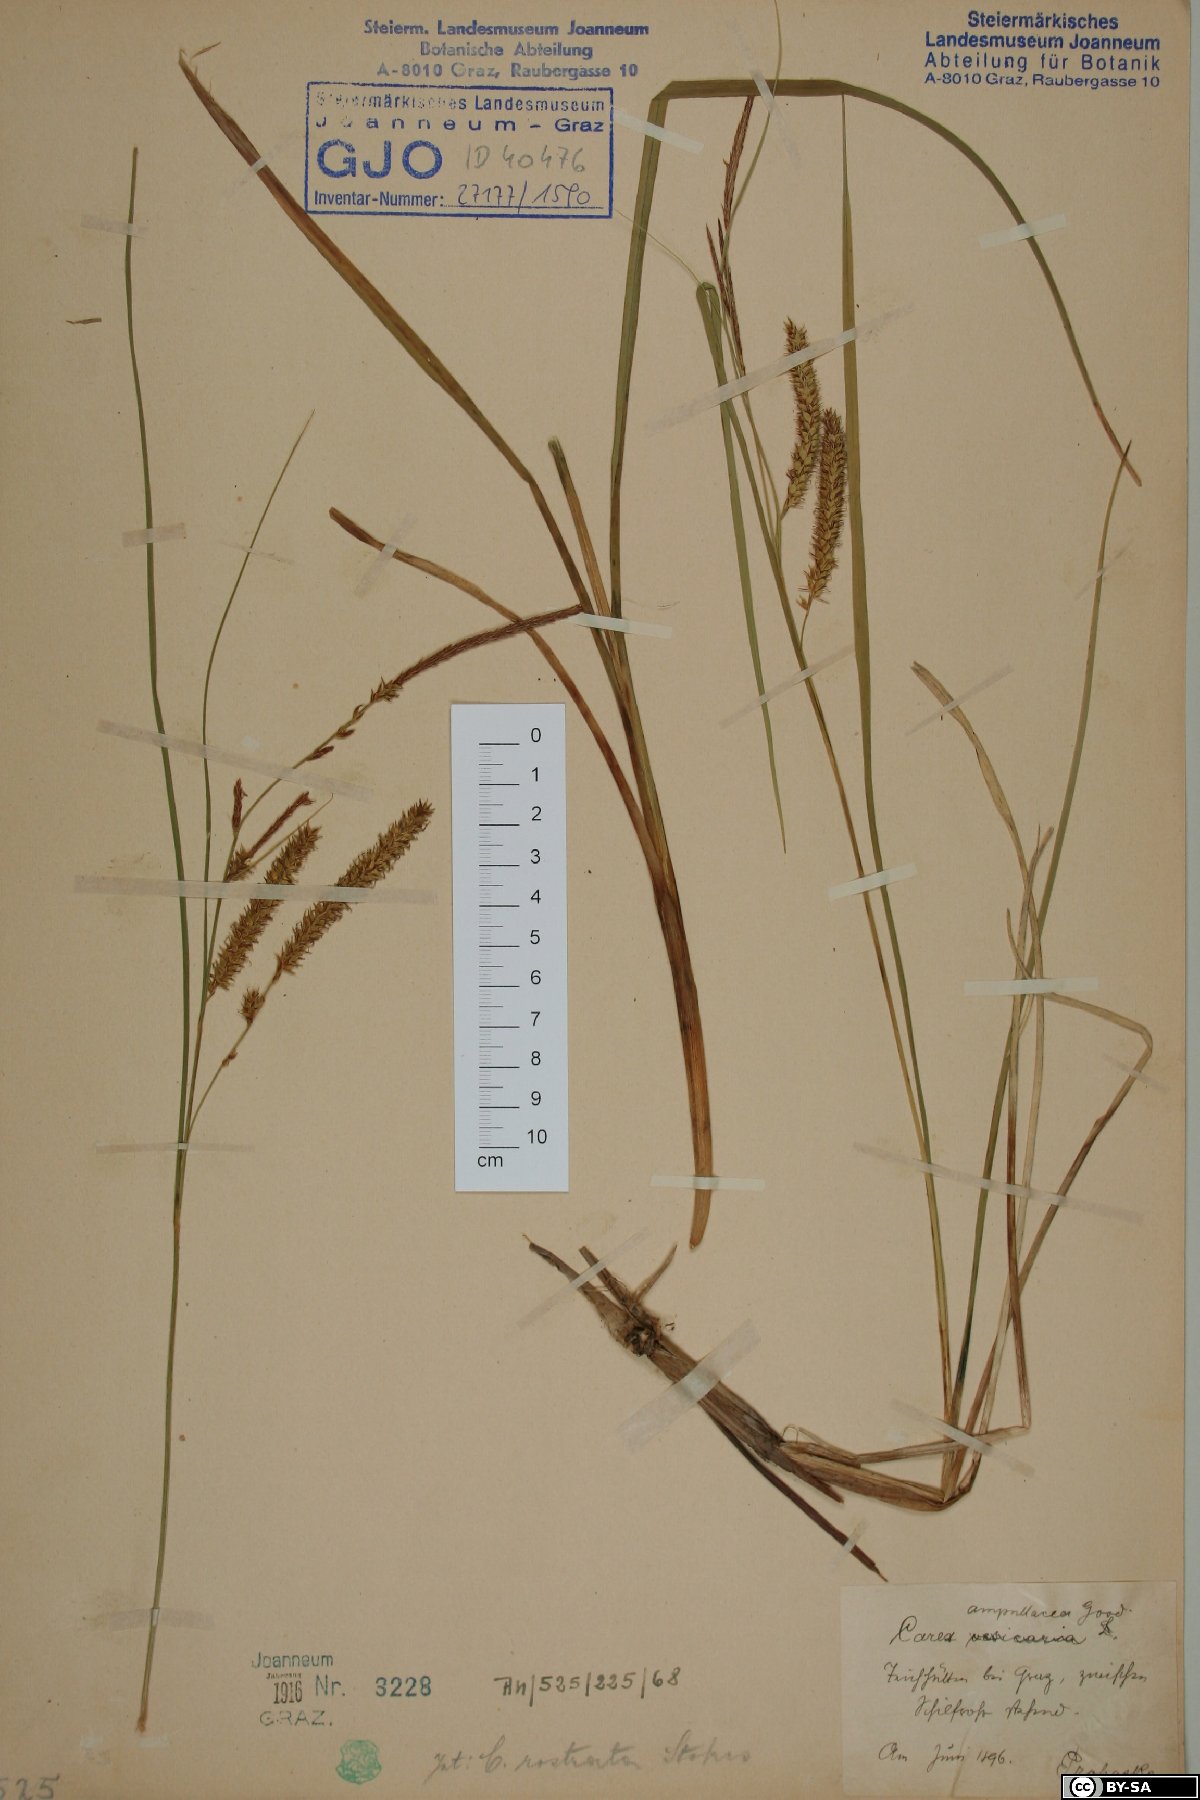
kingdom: Plantae
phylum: Tracheophyta
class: Liliopsida
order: Poales
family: Cyperaceae
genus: Carex
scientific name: Carex rostrata
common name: Bottle sedge
